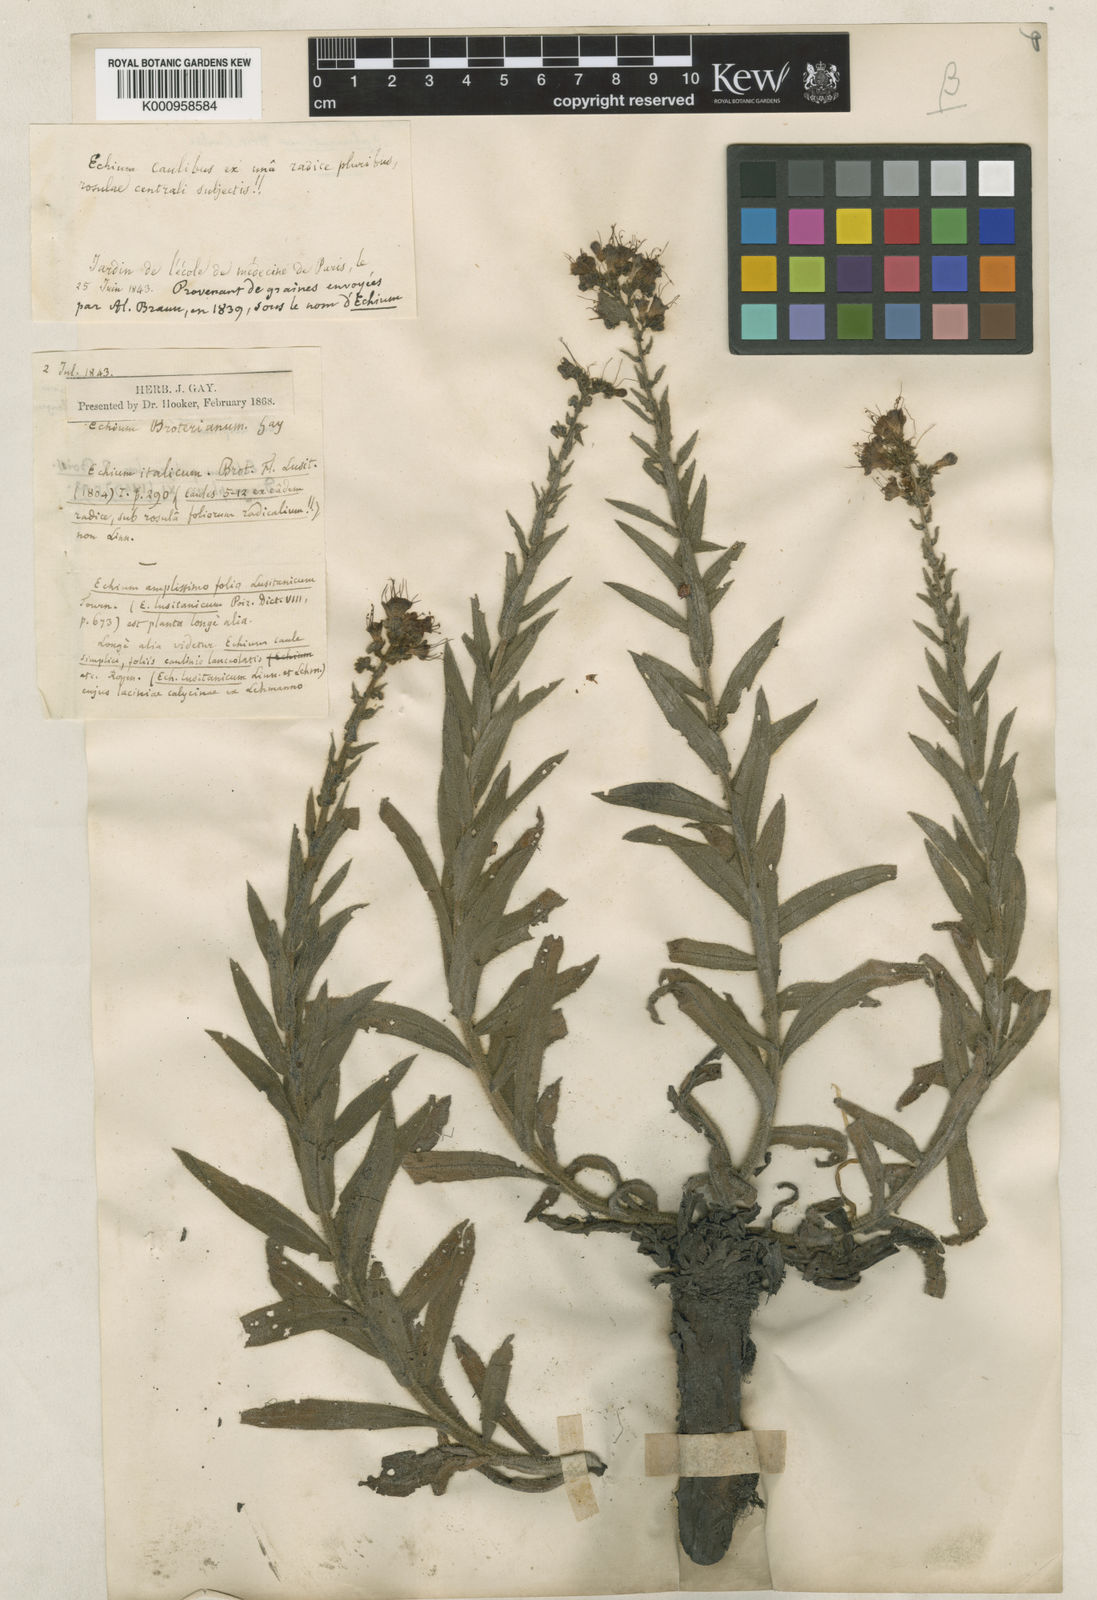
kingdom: Plantae
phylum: Tracheophyta
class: Magnoliopsida
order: Boraginales
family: Boraginaceae
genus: Echium
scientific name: Echium lusitanicum
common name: Violet-vein viper's bugloss
